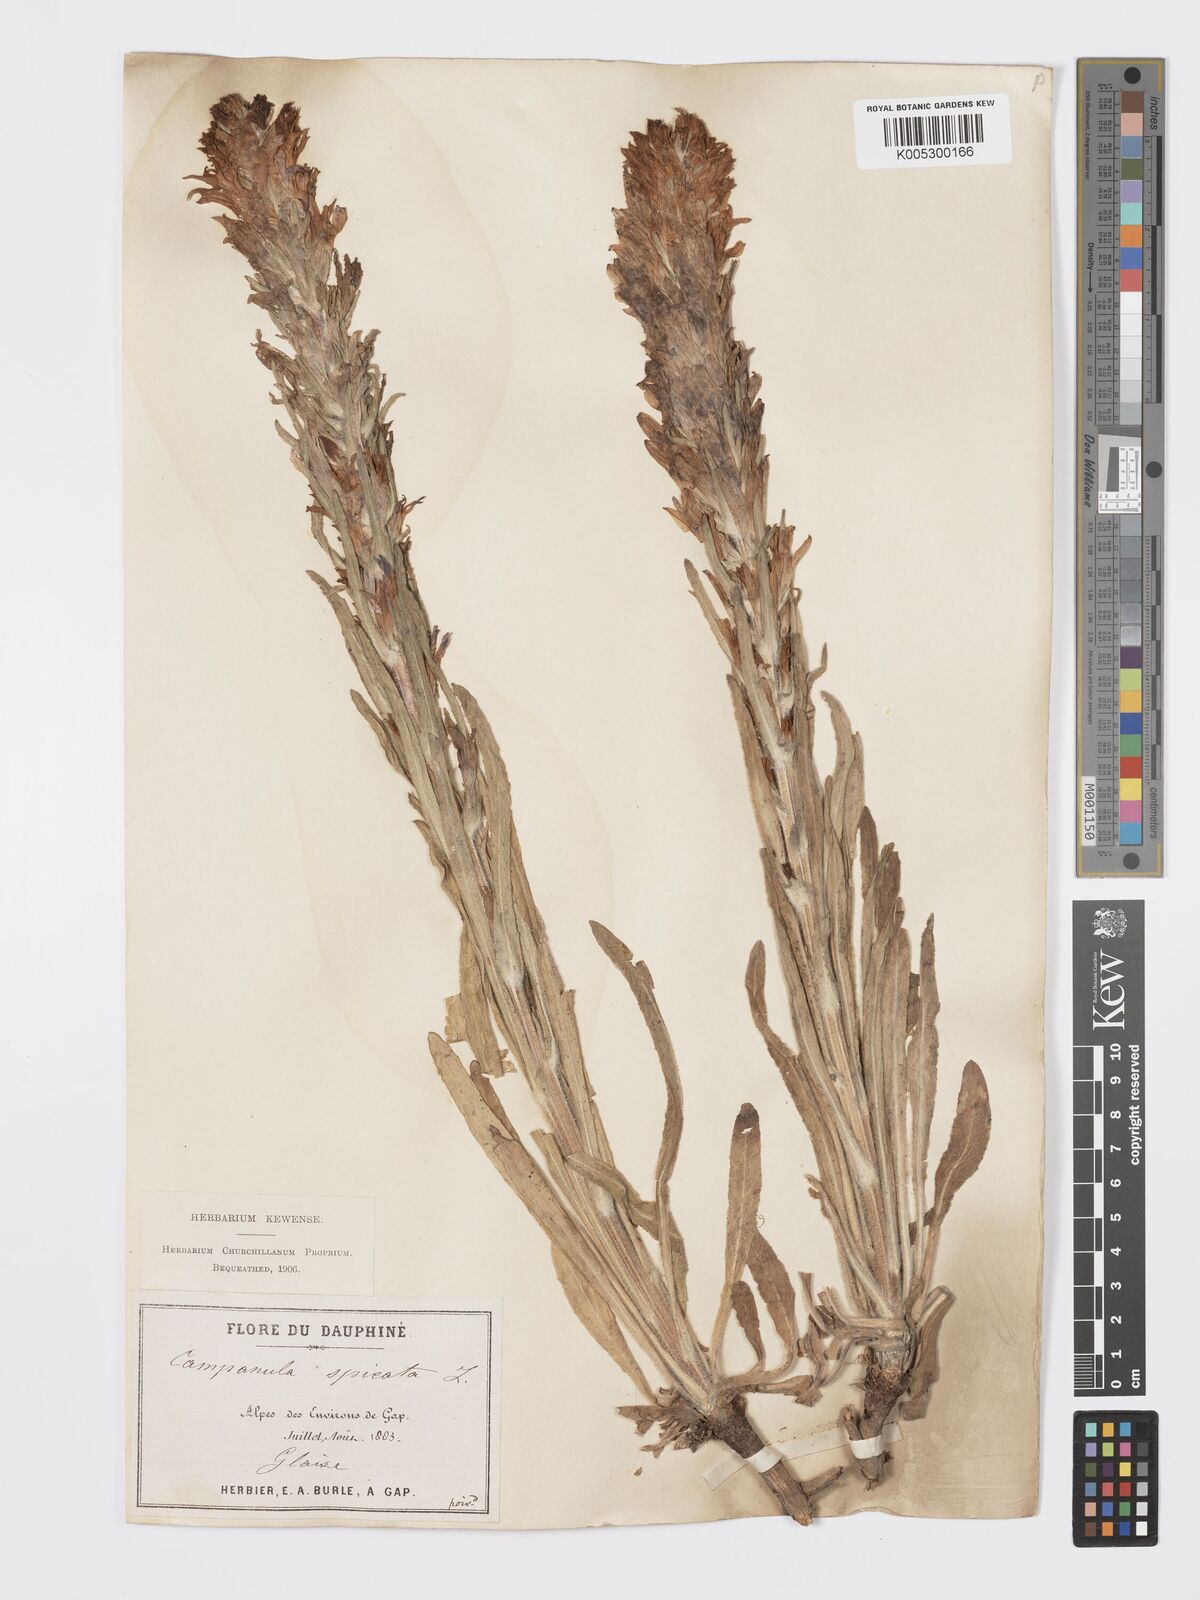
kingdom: Plantae
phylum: Tracheophyta
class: Magnoliopsida
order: Asterales
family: Campanulaceae
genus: Campanula
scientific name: Campanula spicata
